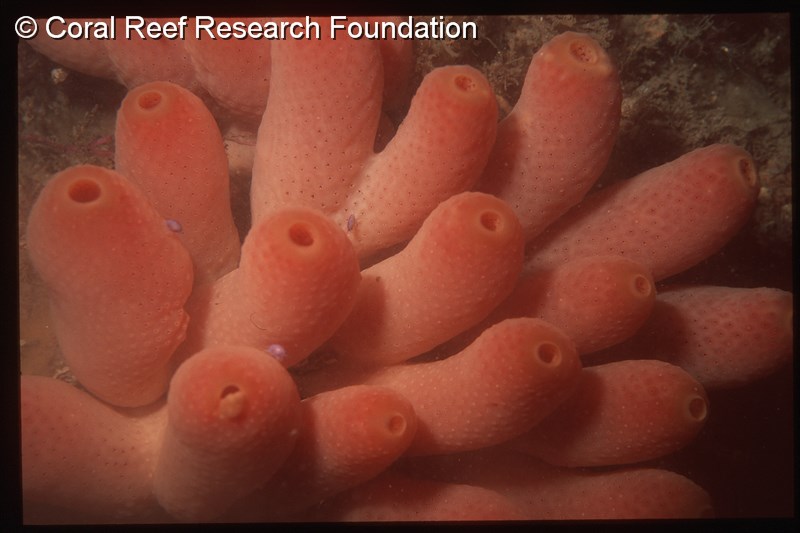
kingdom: Animalia
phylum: Chordata
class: Ascidiacea
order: Aplousobranchia
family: Didemnidae
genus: Atriolum
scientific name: Atriolum marinense
